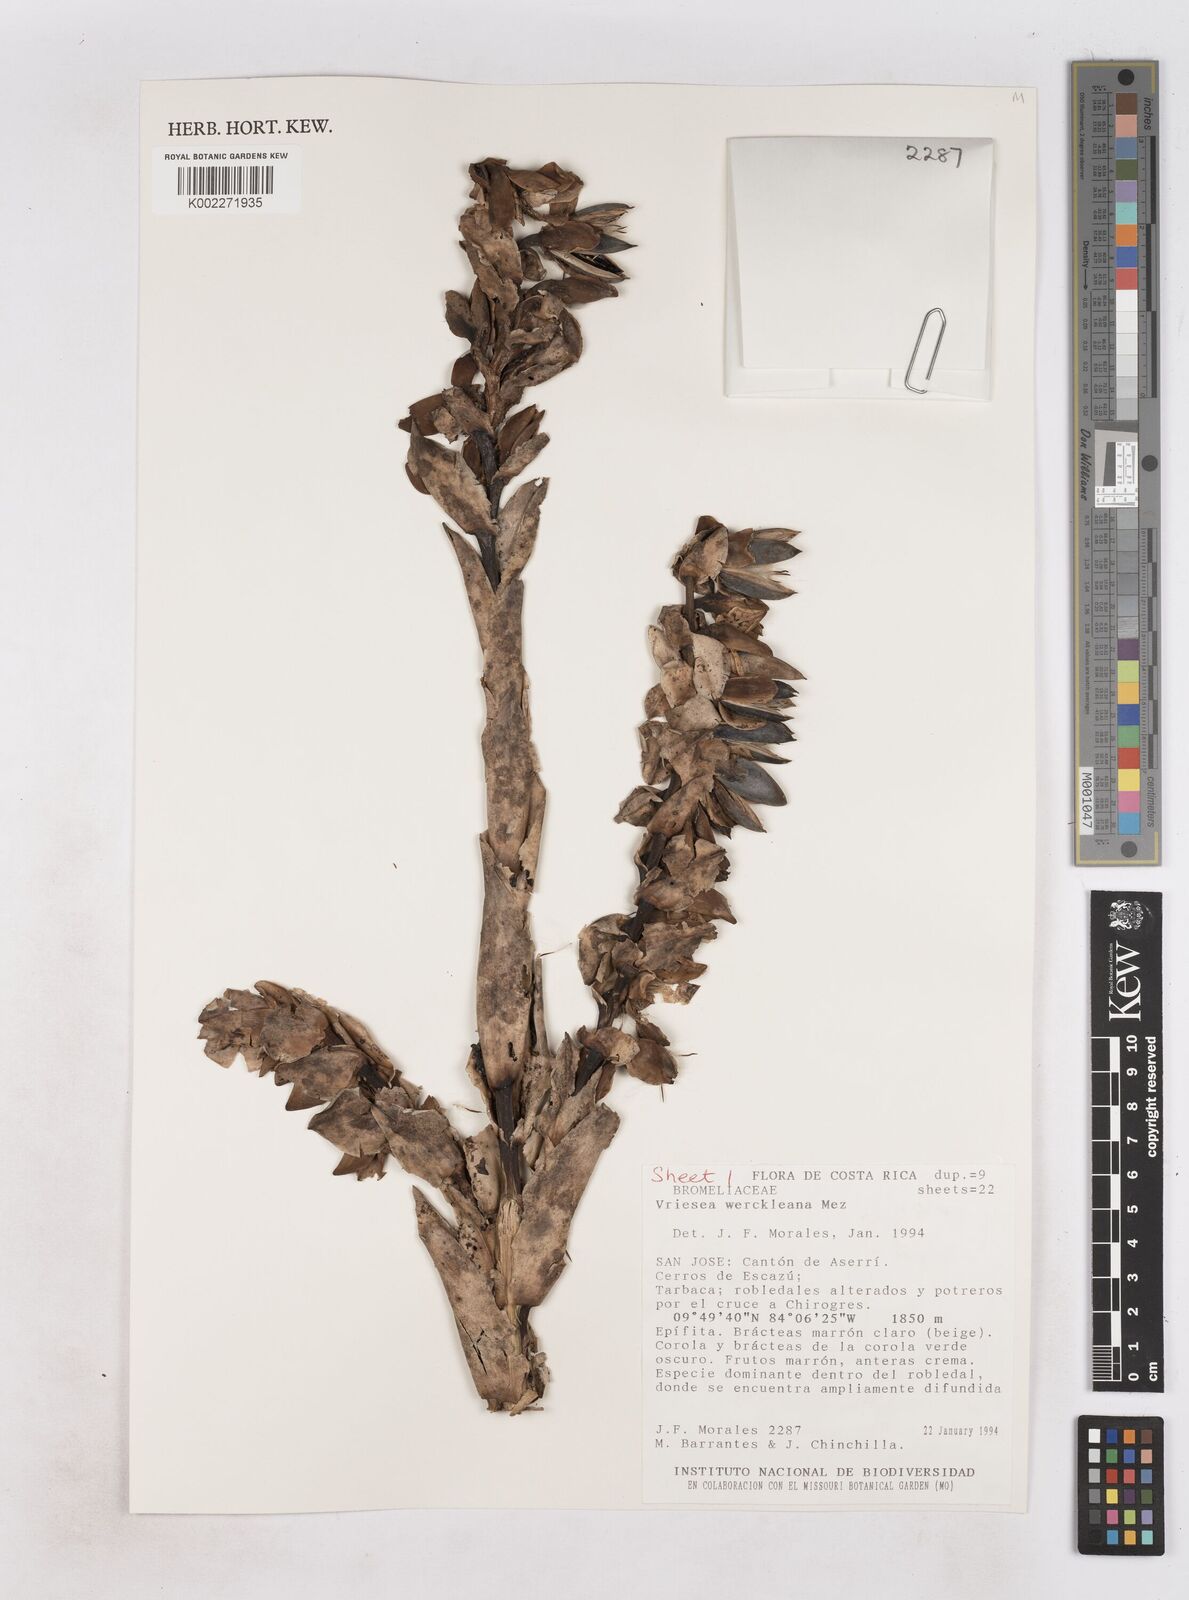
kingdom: Plantae
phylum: Tracheophyta
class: Liliopsida
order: Poales
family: Bromeliaceae
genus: Werauhia
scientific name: Werauhia werckleana
